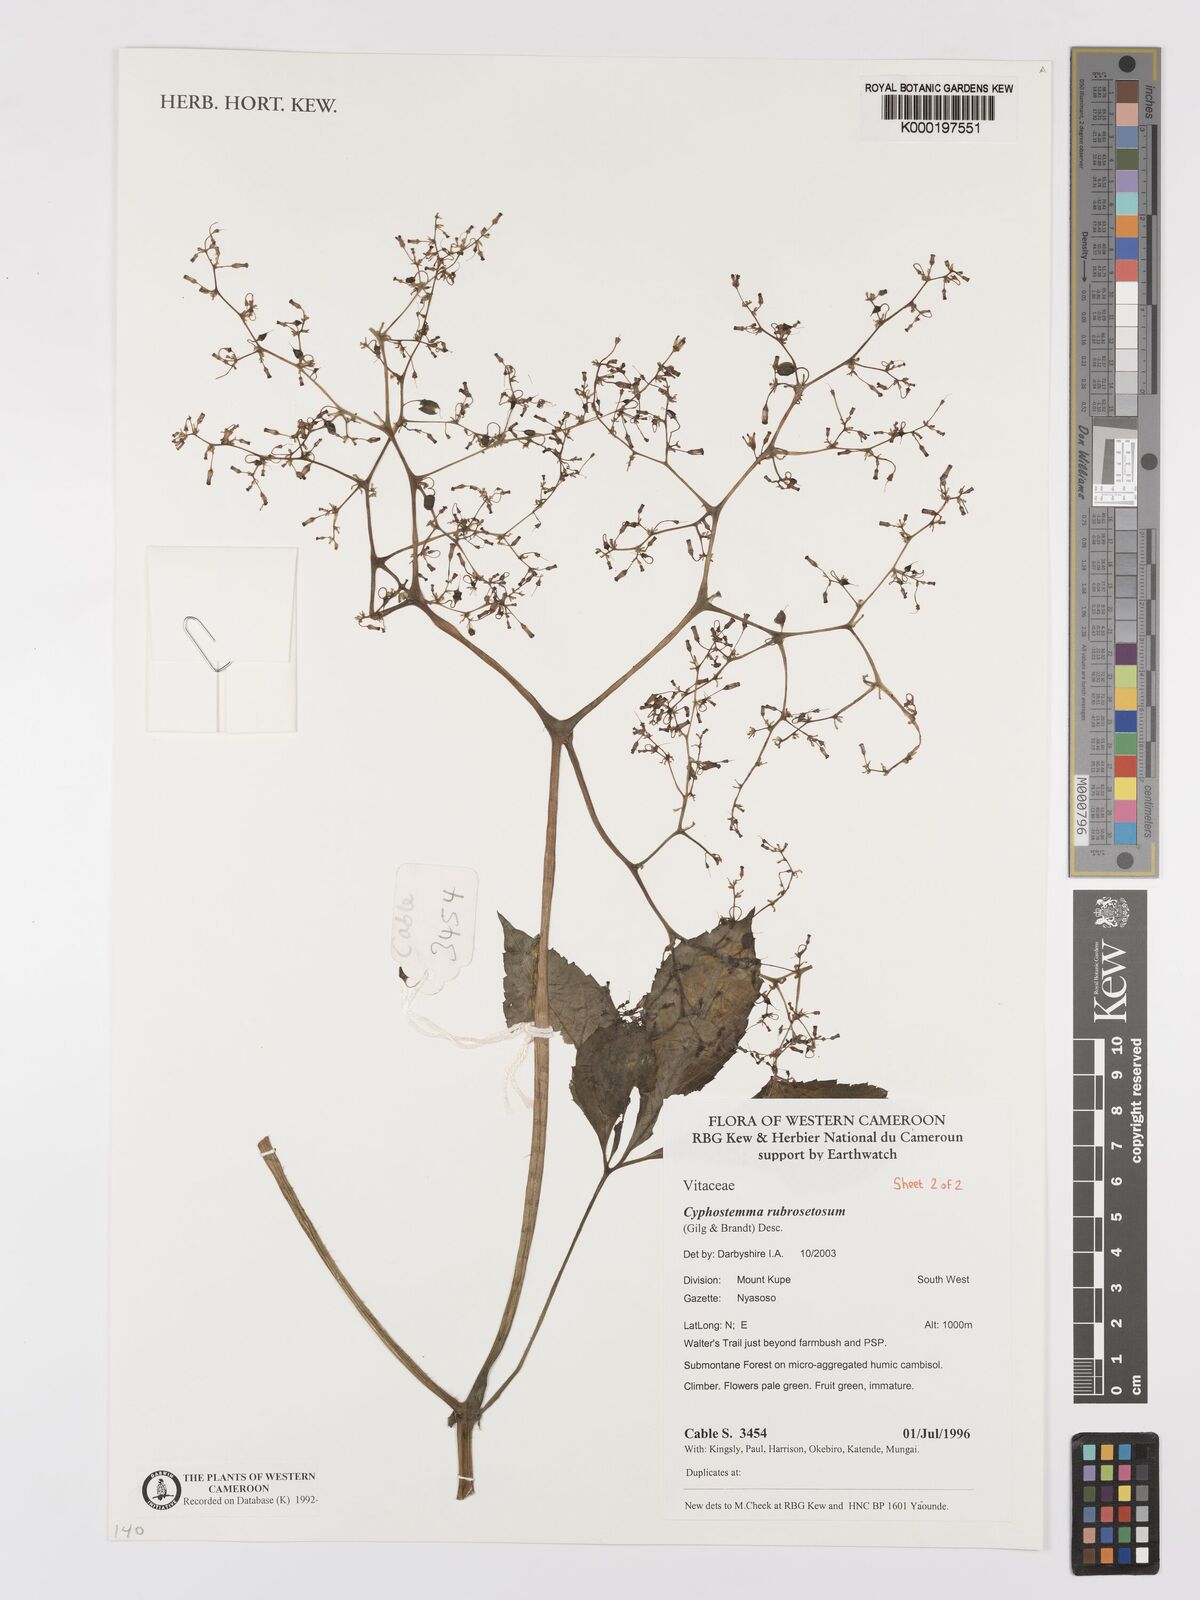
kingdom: Plantae
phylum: Tracheophyta
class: Magnoliopsida
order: Vitales
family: Vitaceae
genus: Cyphostemma
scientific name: Cyphostemma rubrosetosum
